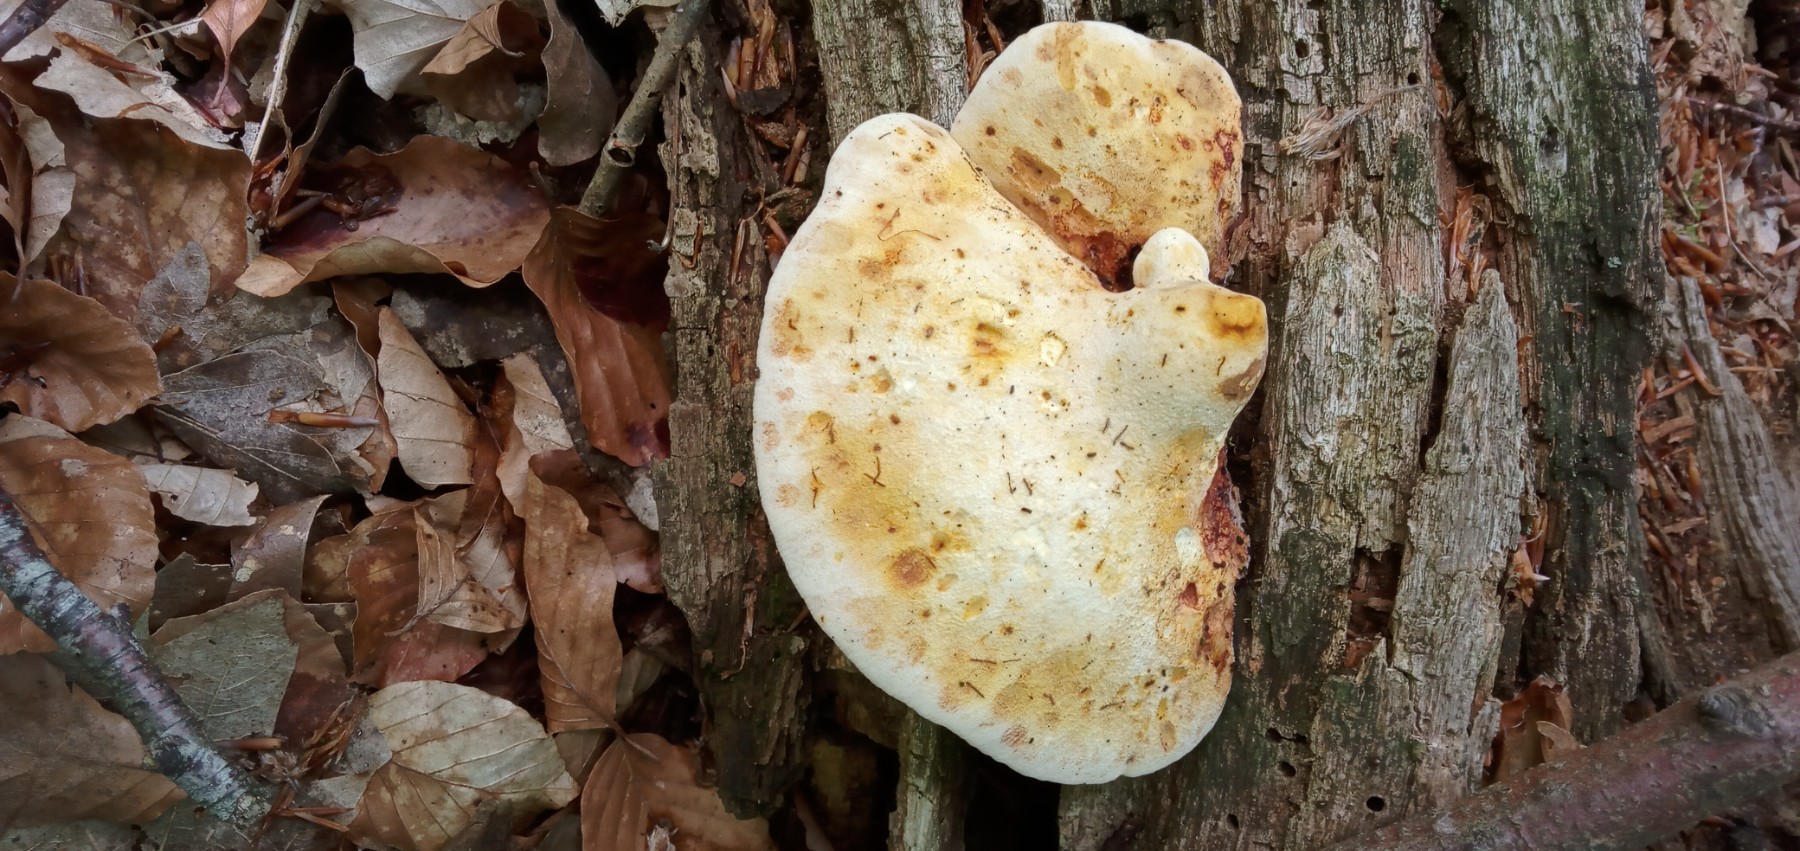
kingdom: Fungi
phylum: Basidiomycota
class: Agaricomycetes
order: Polyporales
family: Fomitopsidaceae
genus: Buglossoporus
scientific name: Buglossoporus quercinus
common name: egetunge
